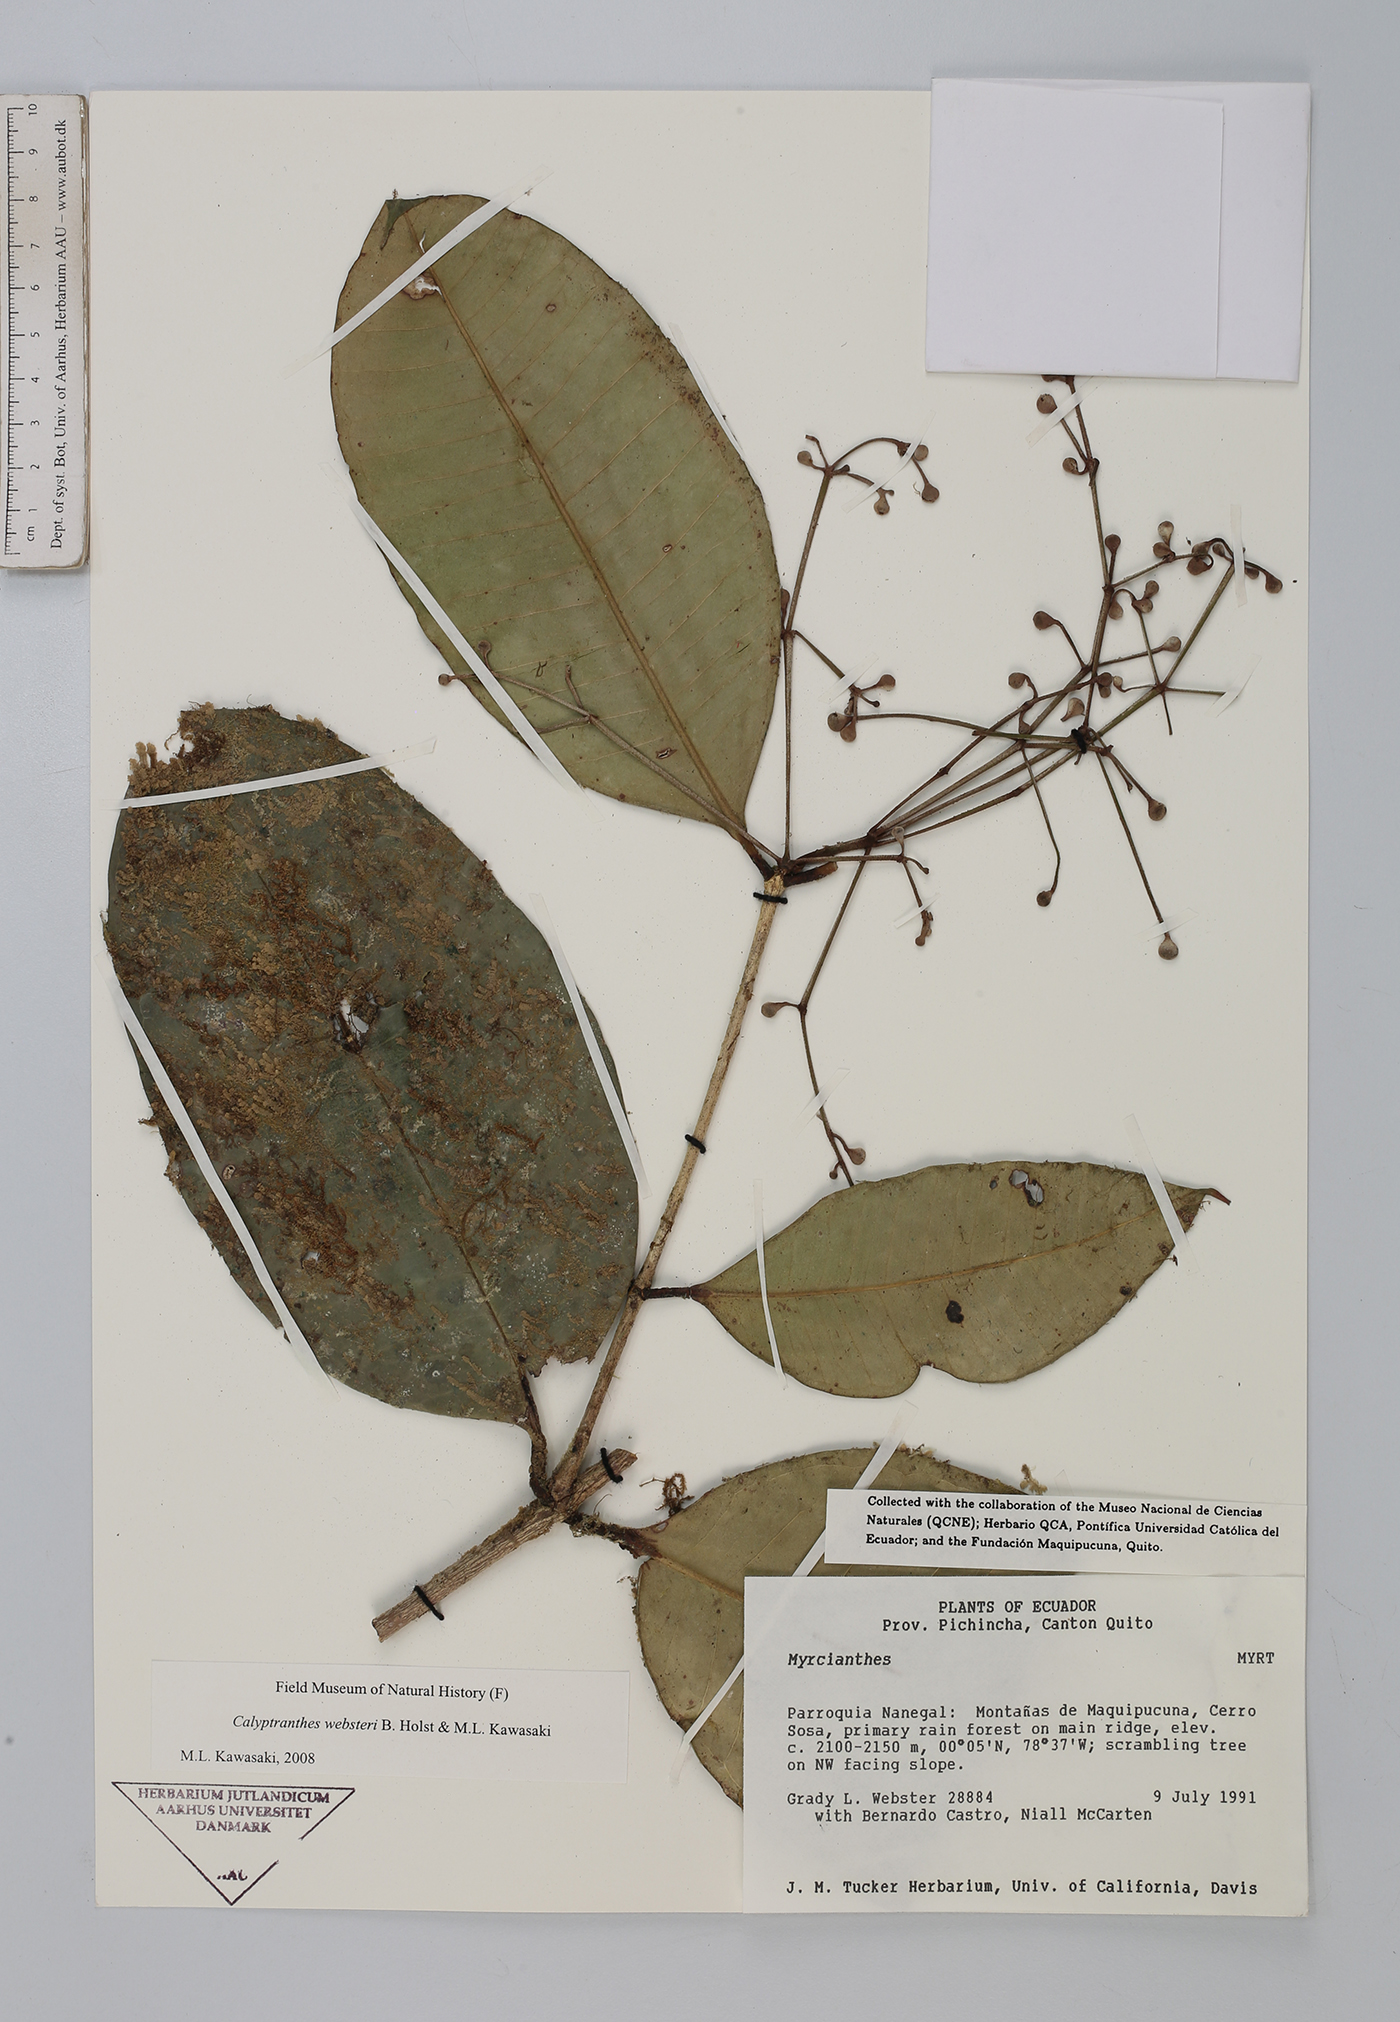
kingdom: Plantae
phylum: Tracheophyta
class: Magnoliopsida
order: Myrtales
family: Myrtaceae
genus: Myrcia
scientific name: Myrcia websteri
